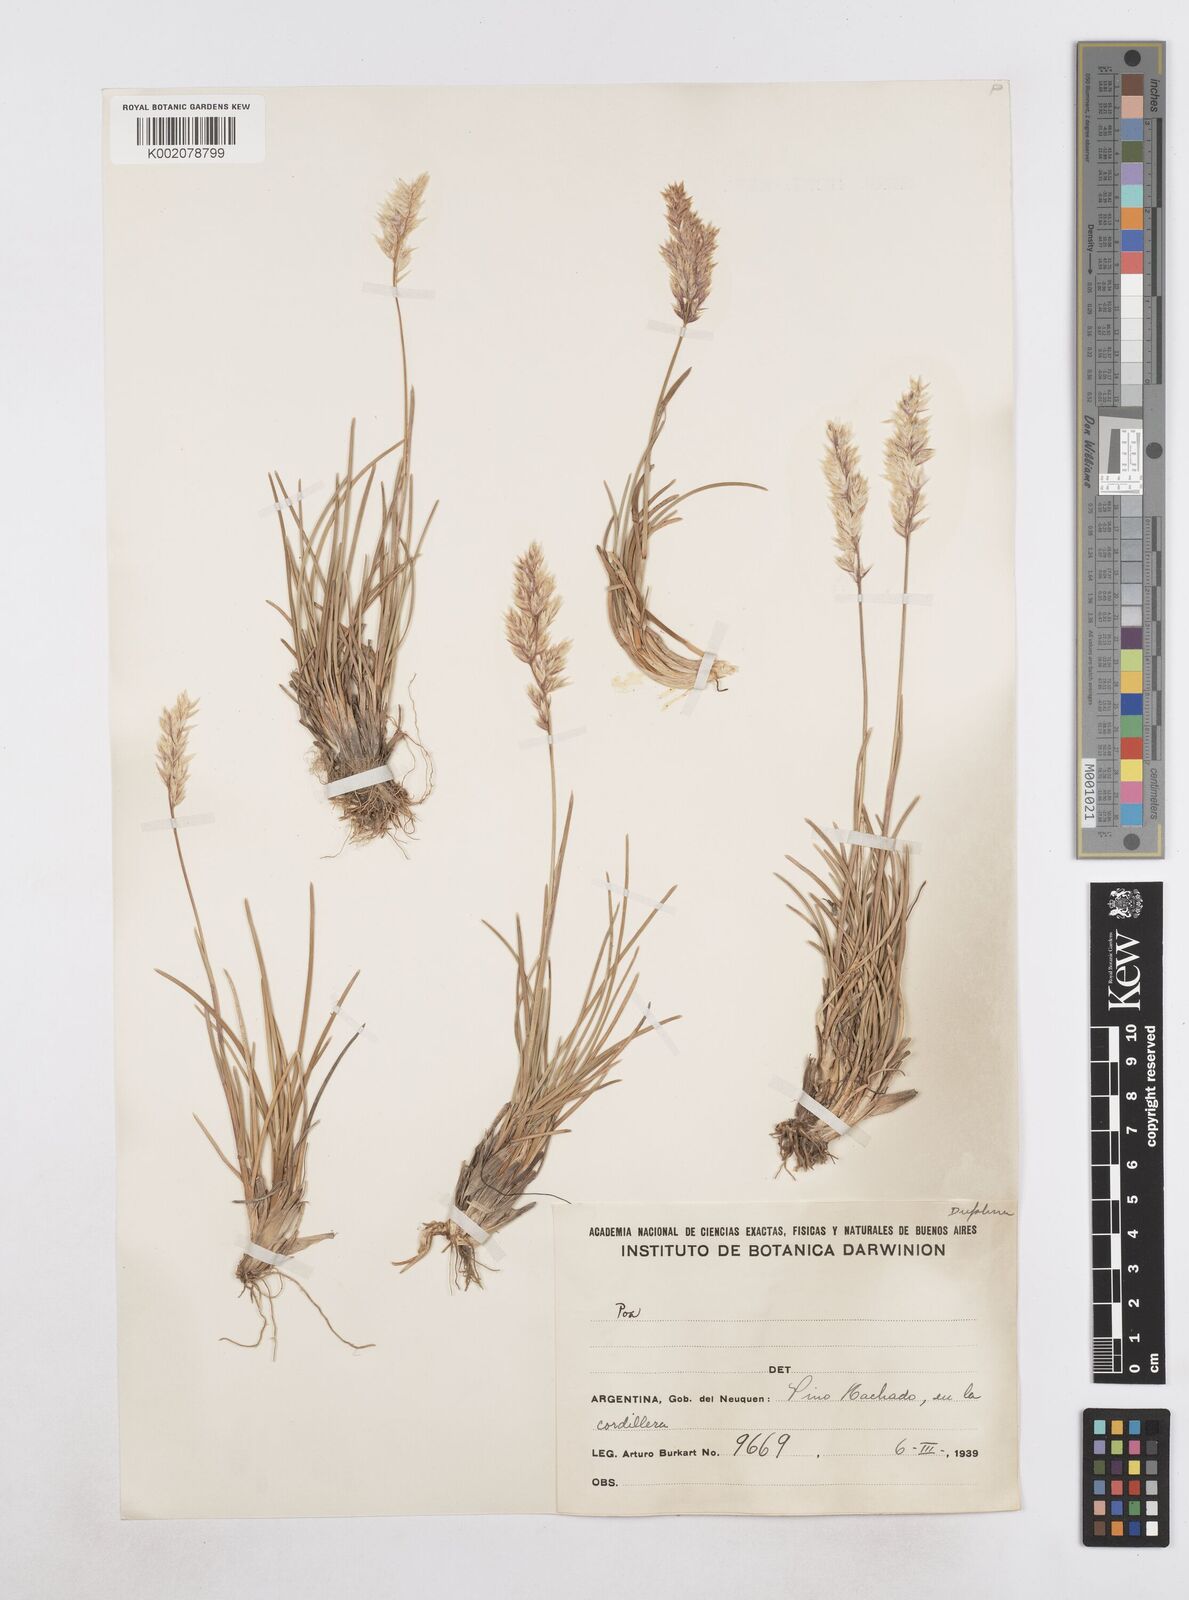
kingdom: Plantae
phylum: Tracheophyta
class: Liliopsida
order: Poales
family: Poaceae
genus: Poa
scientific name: Poa
